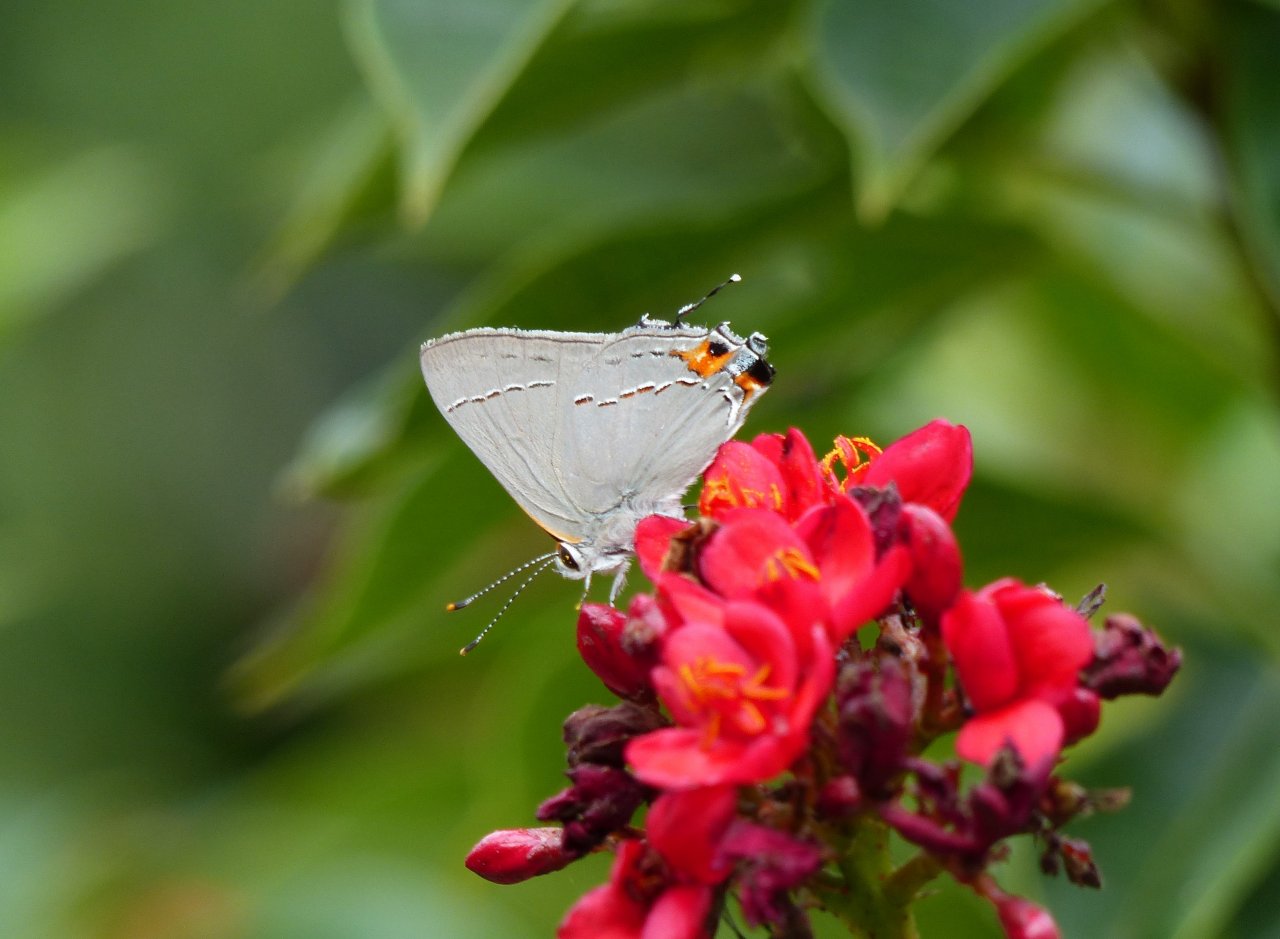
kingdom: Animalia
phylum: Arthropoda
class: Insecta
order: Lepidoptera
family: Lycaenidae
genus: Strymon
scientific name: Strymon melinus
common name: Gray Hairstreak
